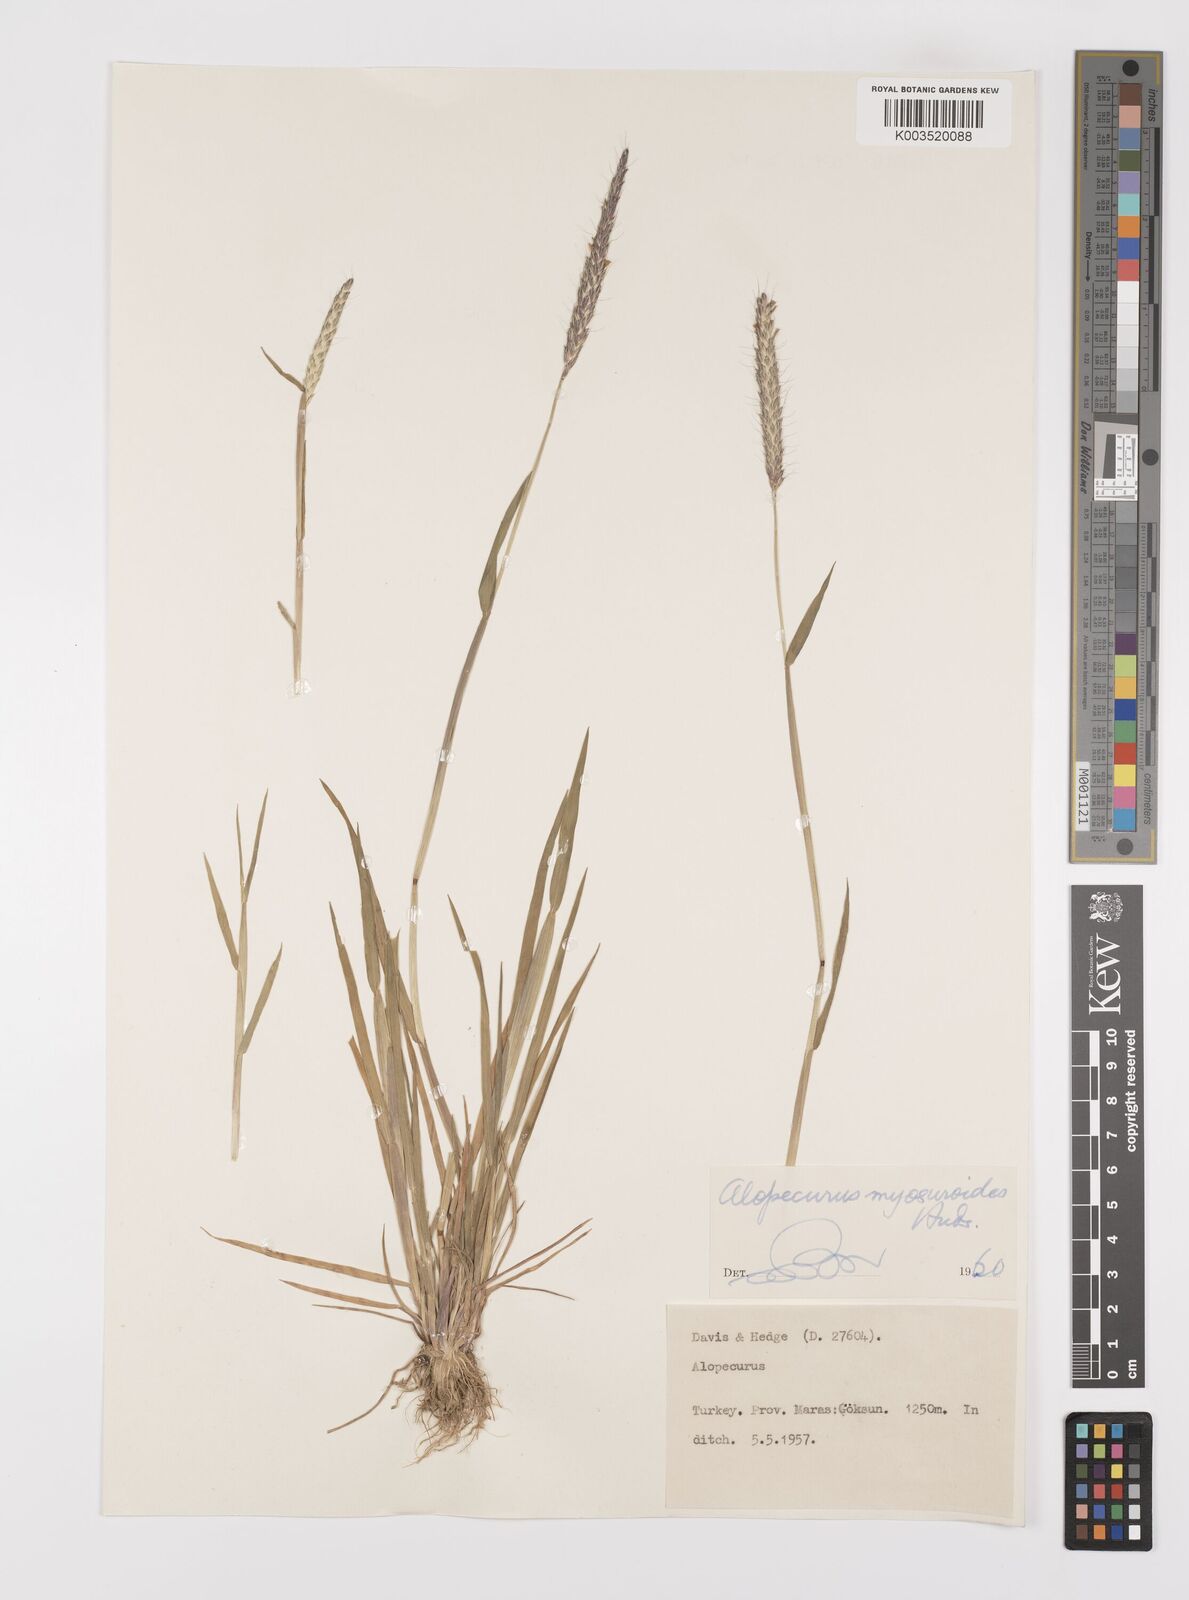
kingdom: Plantae
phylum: Tracheophyta
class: Liliopsida
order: Poales
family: Poaceae
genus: Alopecurus
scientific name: Alopecurus myosuroides
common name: Black-grass
